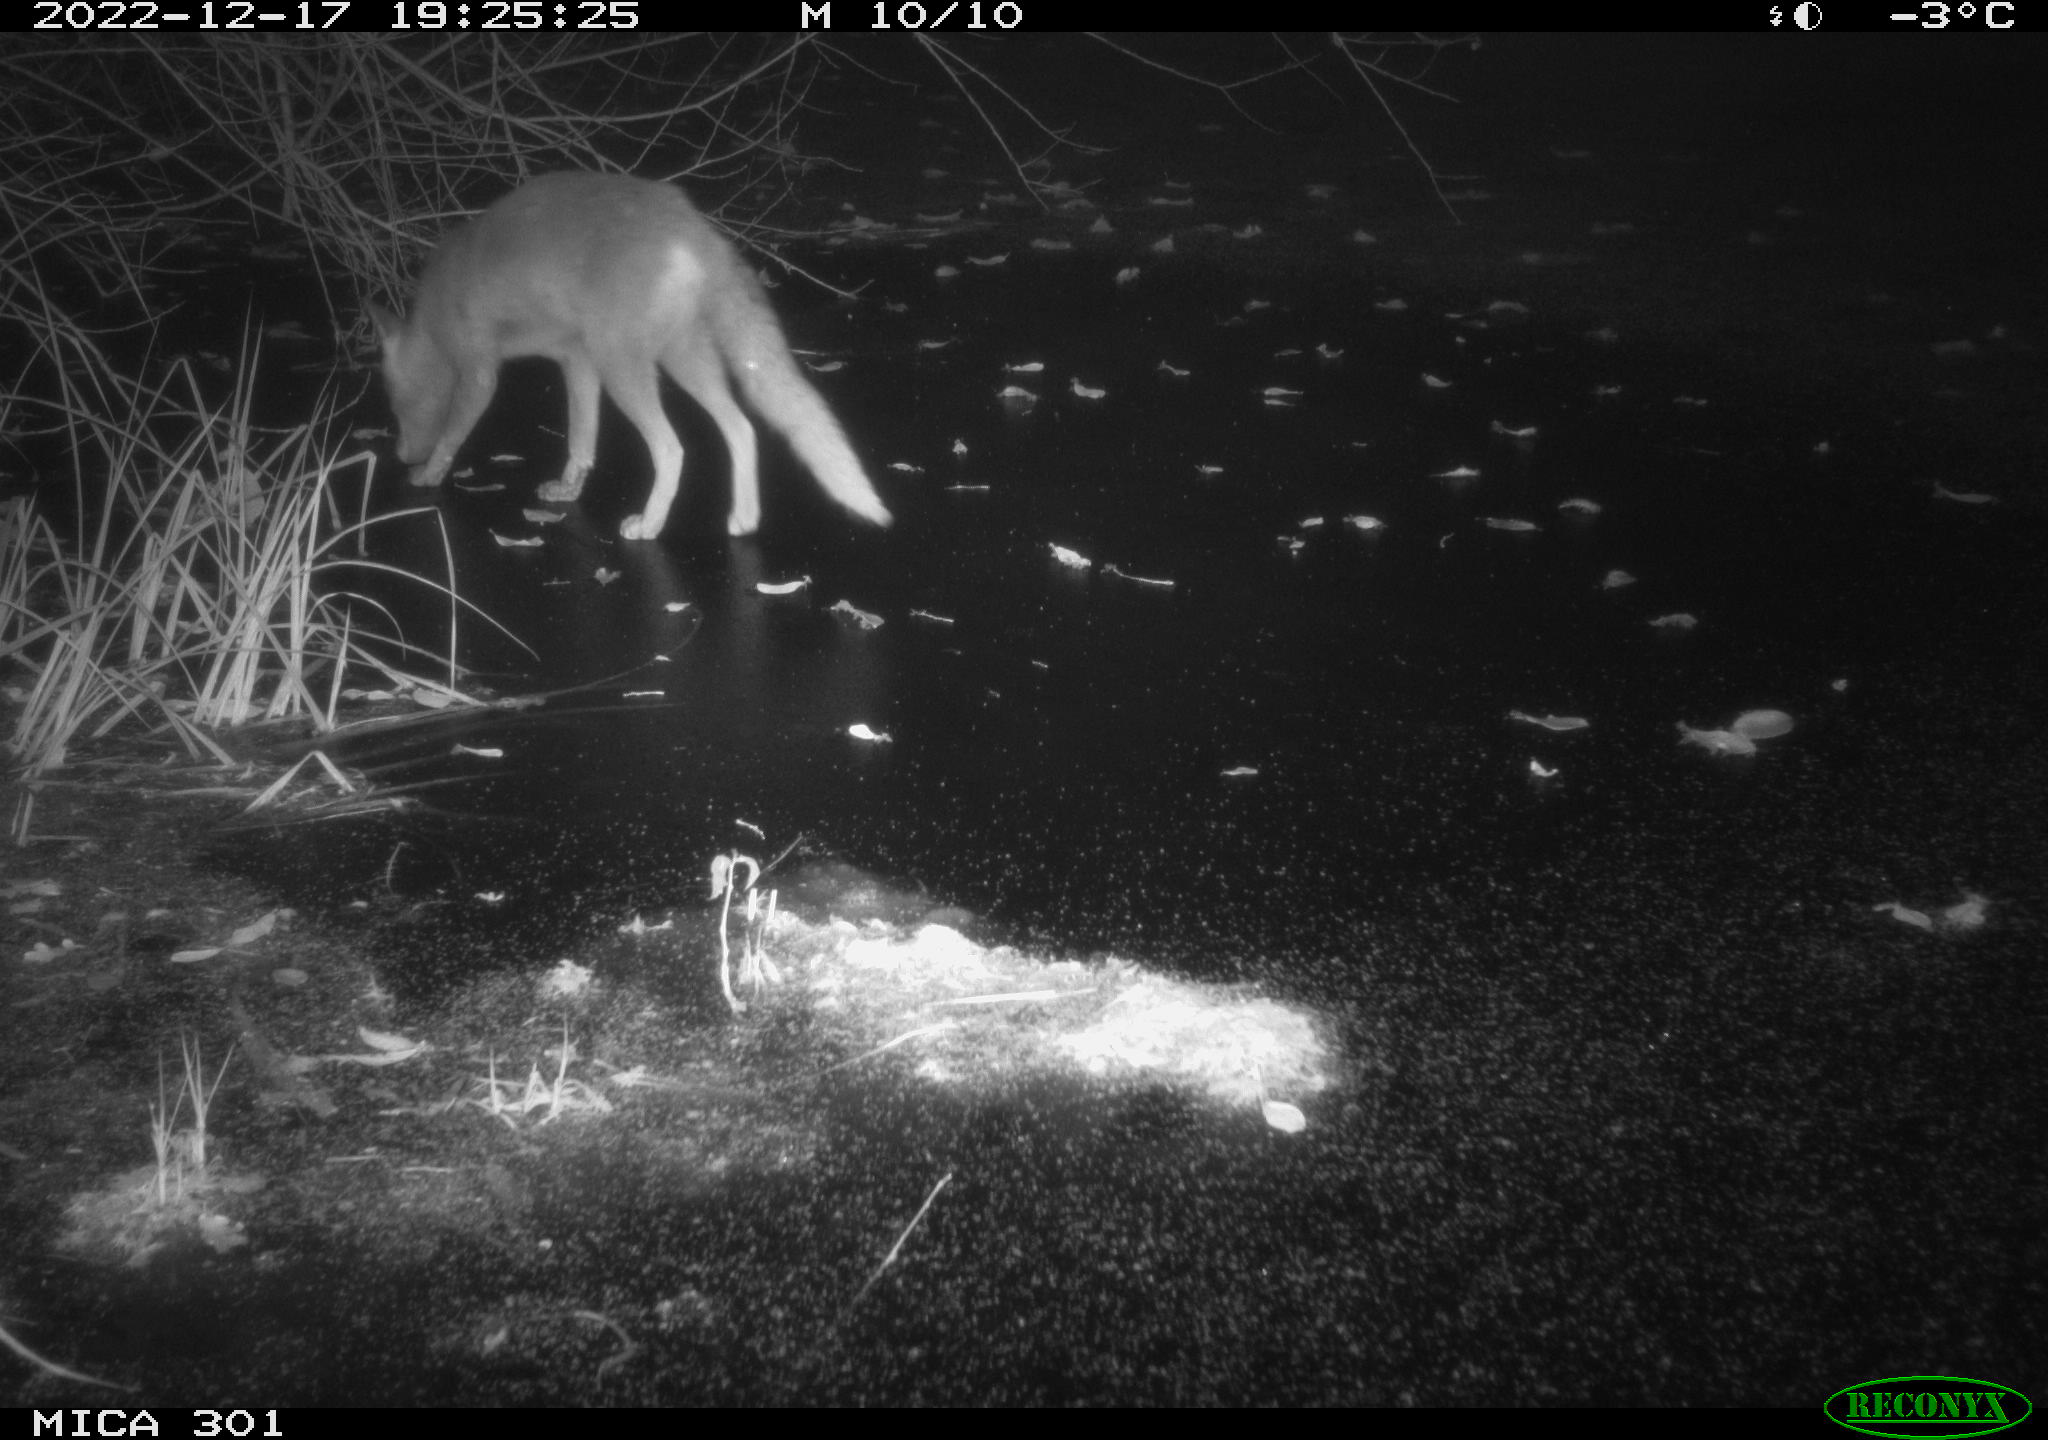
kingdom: Animalia
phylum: Chordata
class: Mammalia
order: Carnivora
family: Canidae
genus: Vulpes
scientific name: Vulpes vulpes
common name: Red fox
